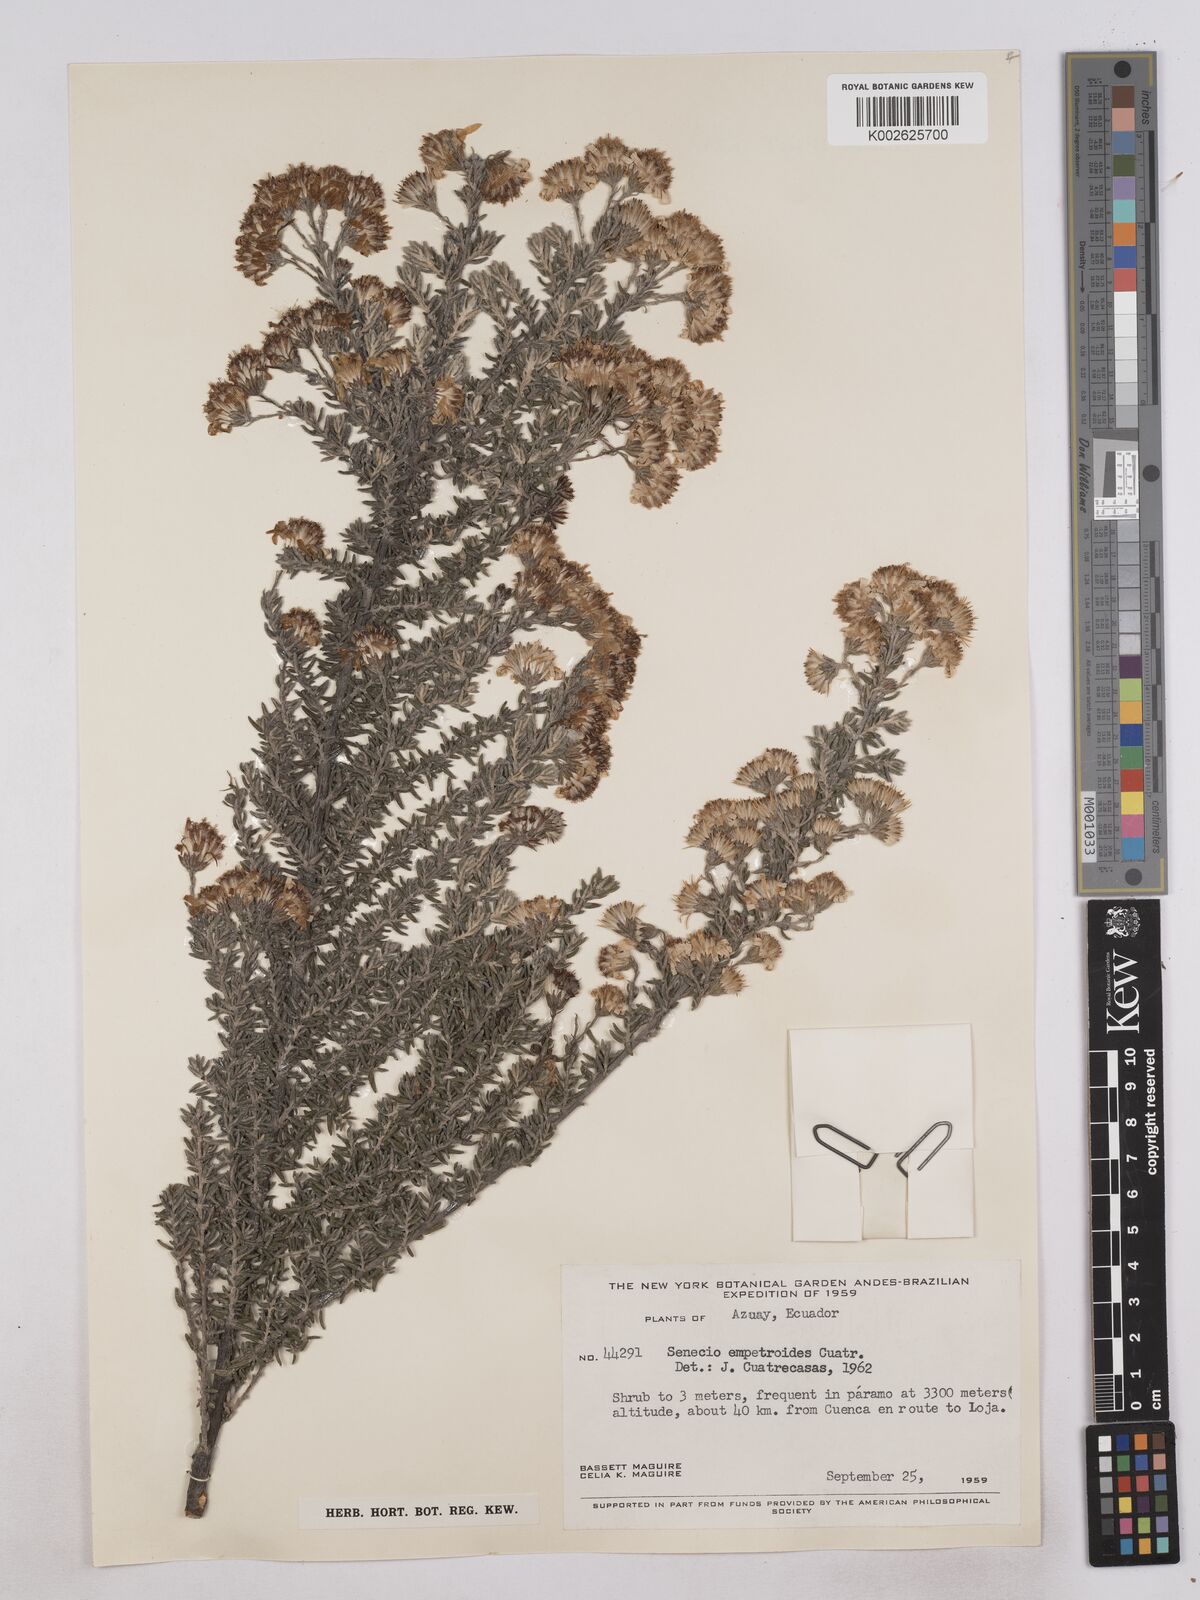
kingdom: Plantae
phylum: Tracheophyta
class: Magnoliopsida
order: Asterales
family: Asteraceae
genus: Monticalia
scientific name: Monticalia empetroides
